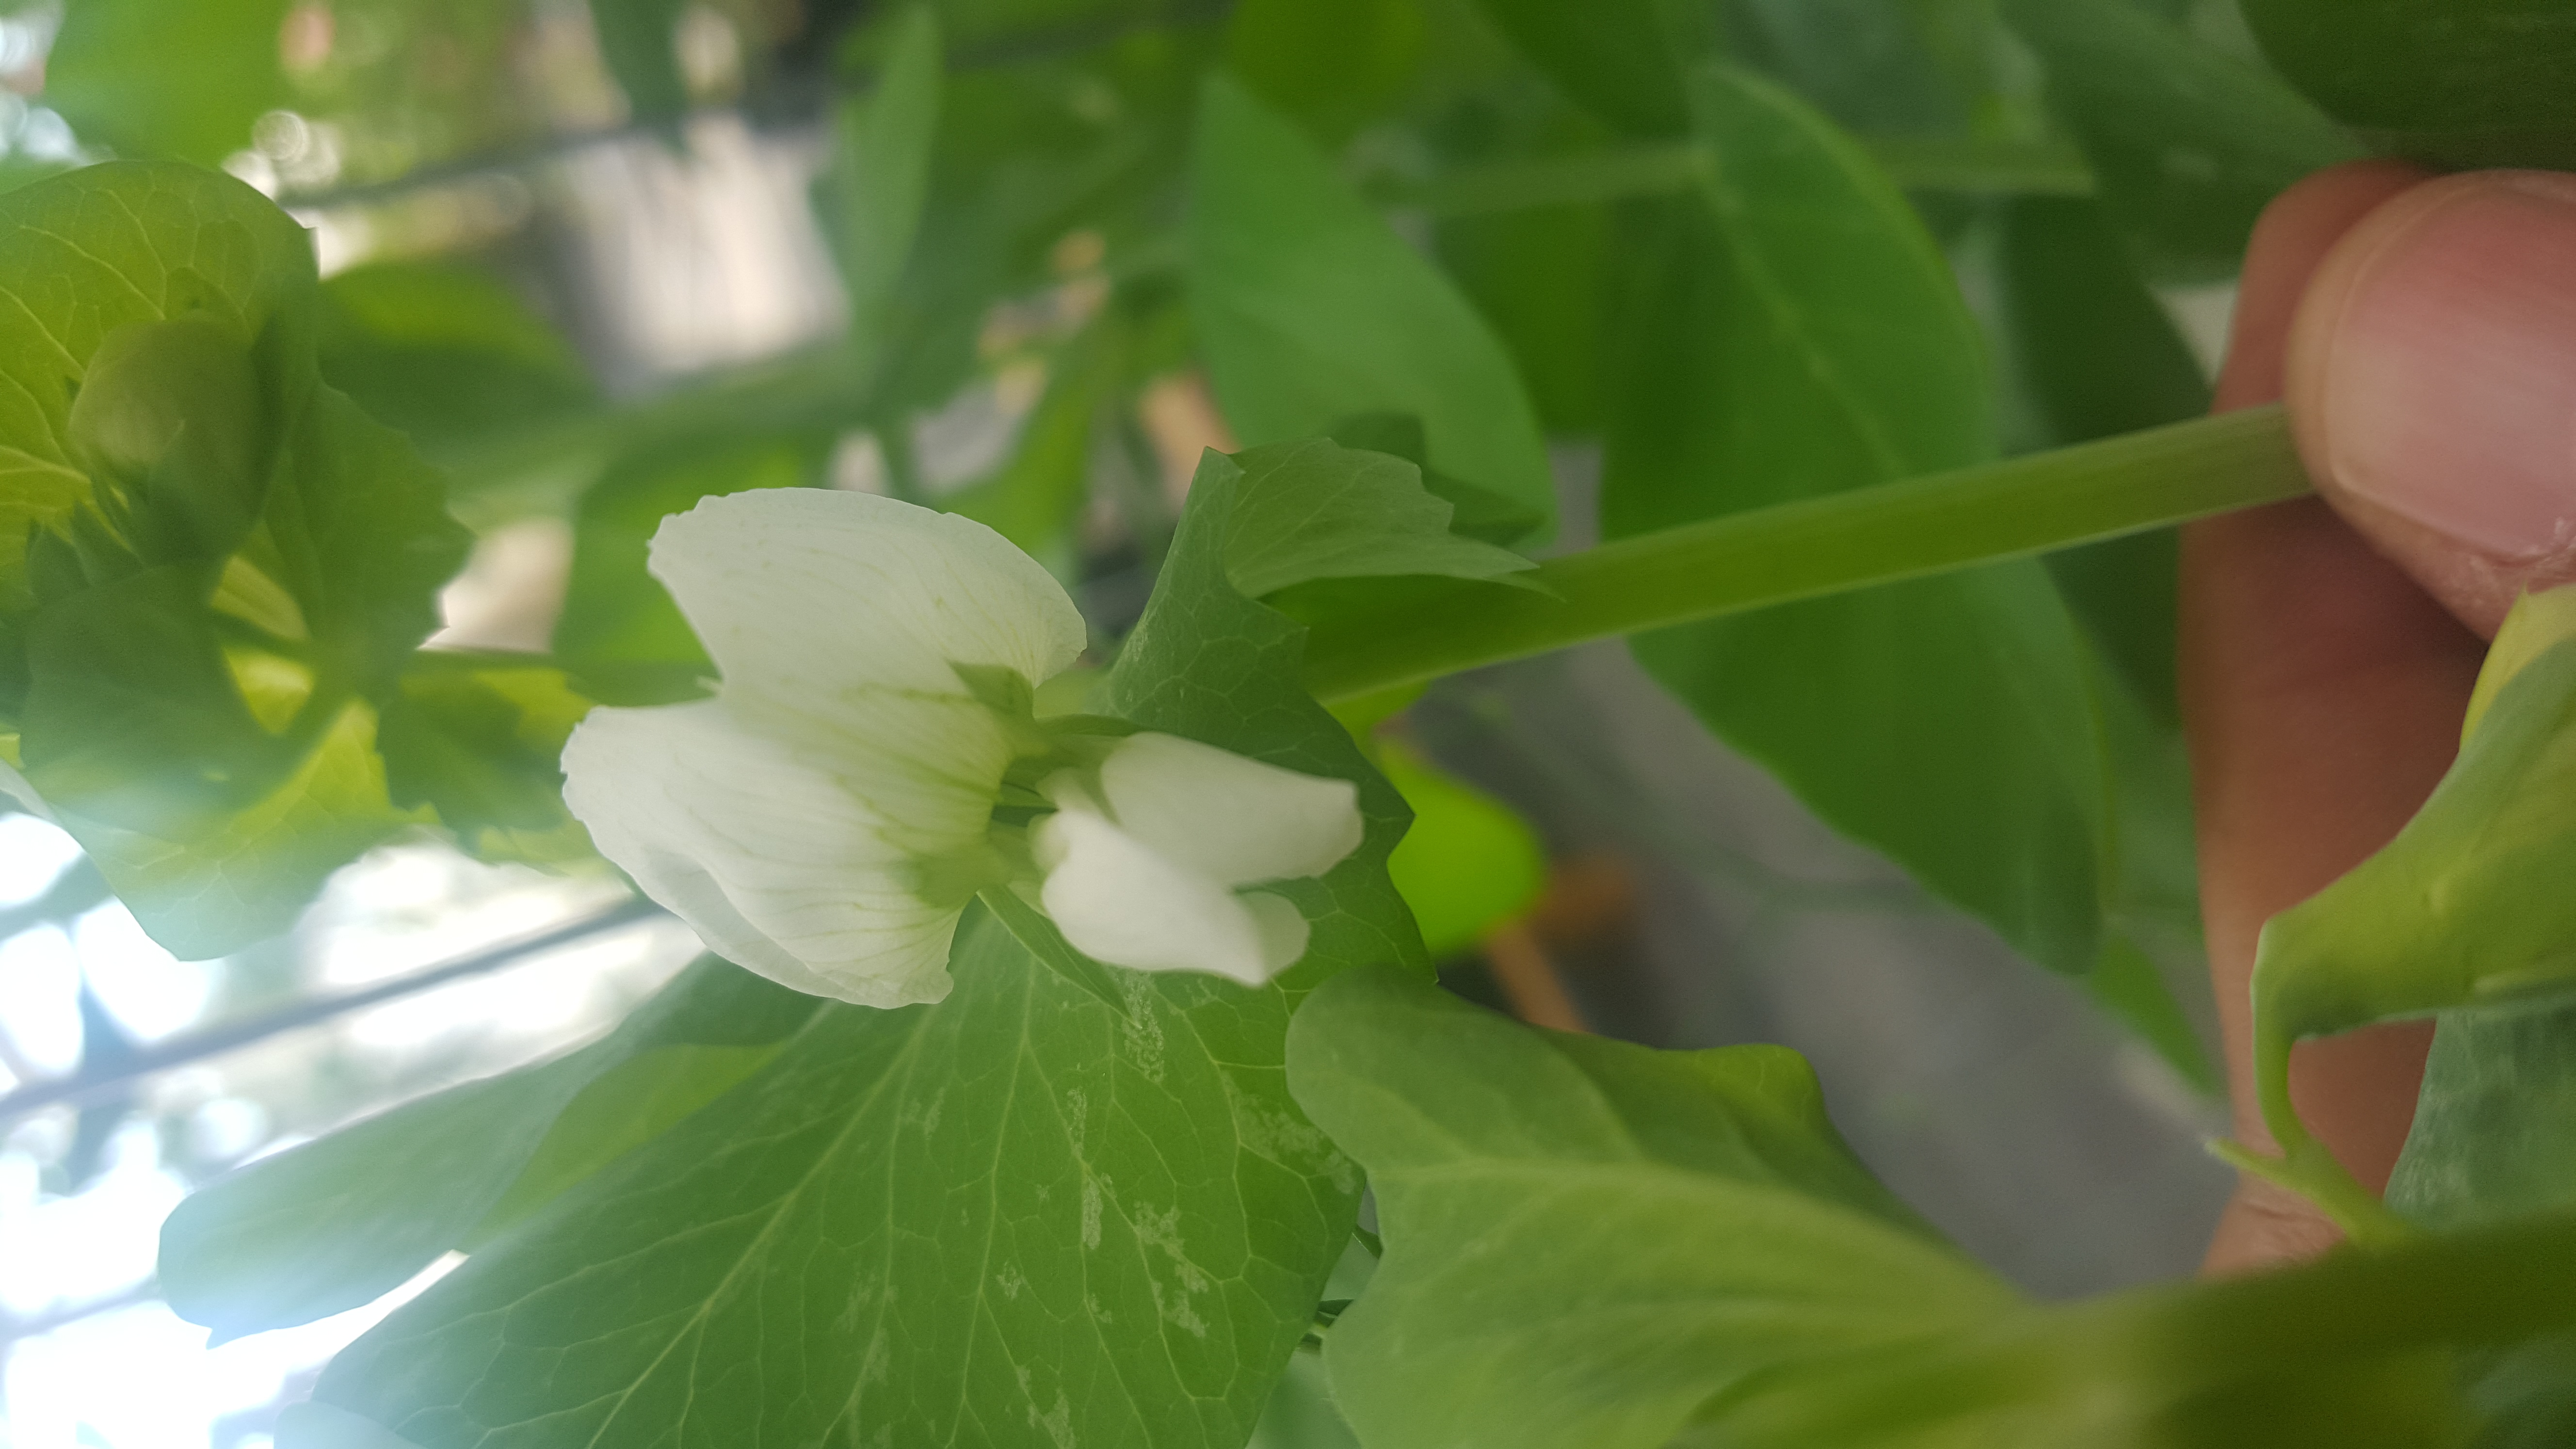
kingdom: Plantae
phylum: Tracheophyta
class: Magnoliopsida
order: Fabales
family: Fabaceae
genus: Lathyrus
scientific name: Lathyrus oleraceus
